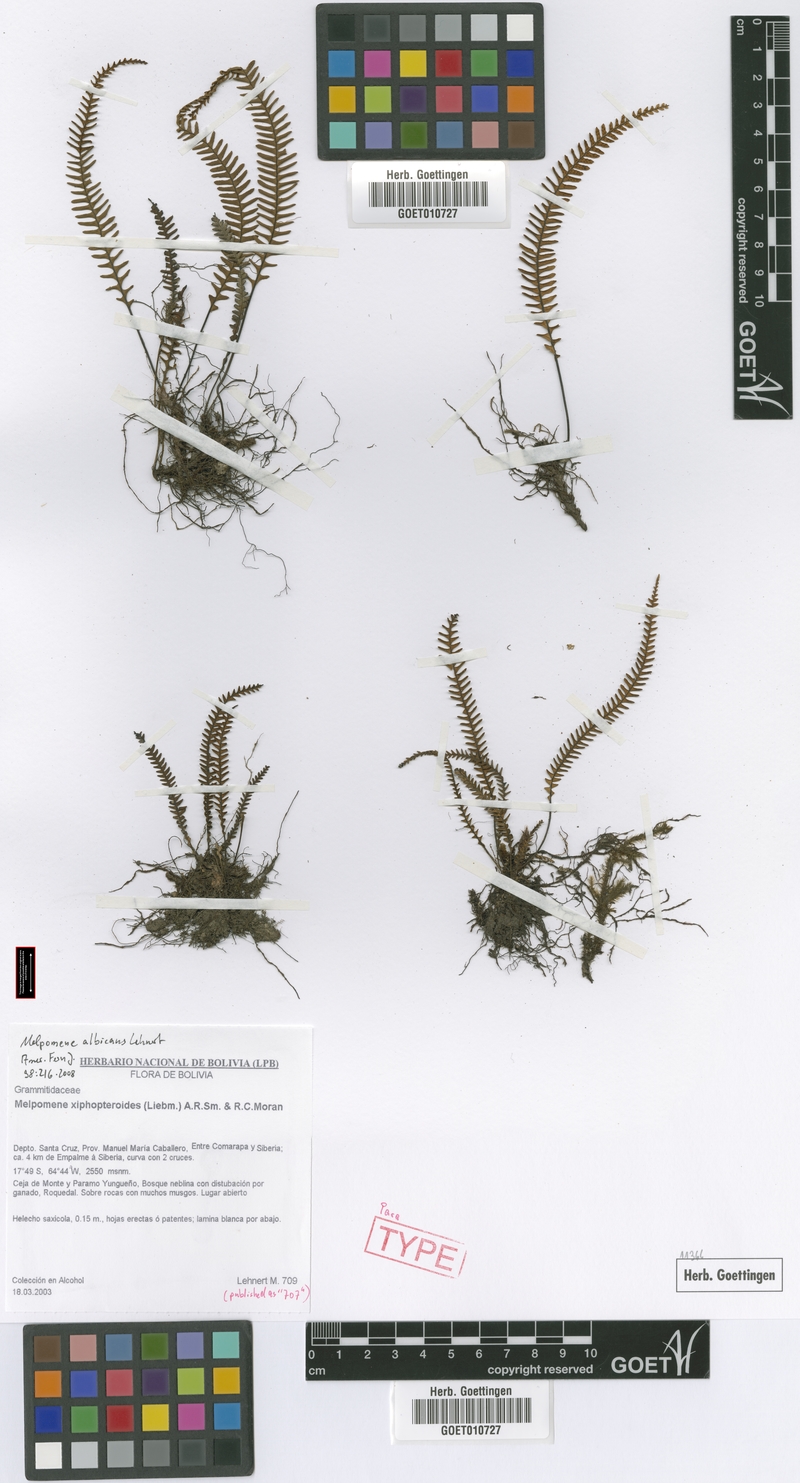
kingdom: Plantae
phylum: Tracheophyta
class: Polypodiopsida
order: Polypodiales
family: Polypodiaceae
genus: Melpomene
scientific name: Melpomene albicans
